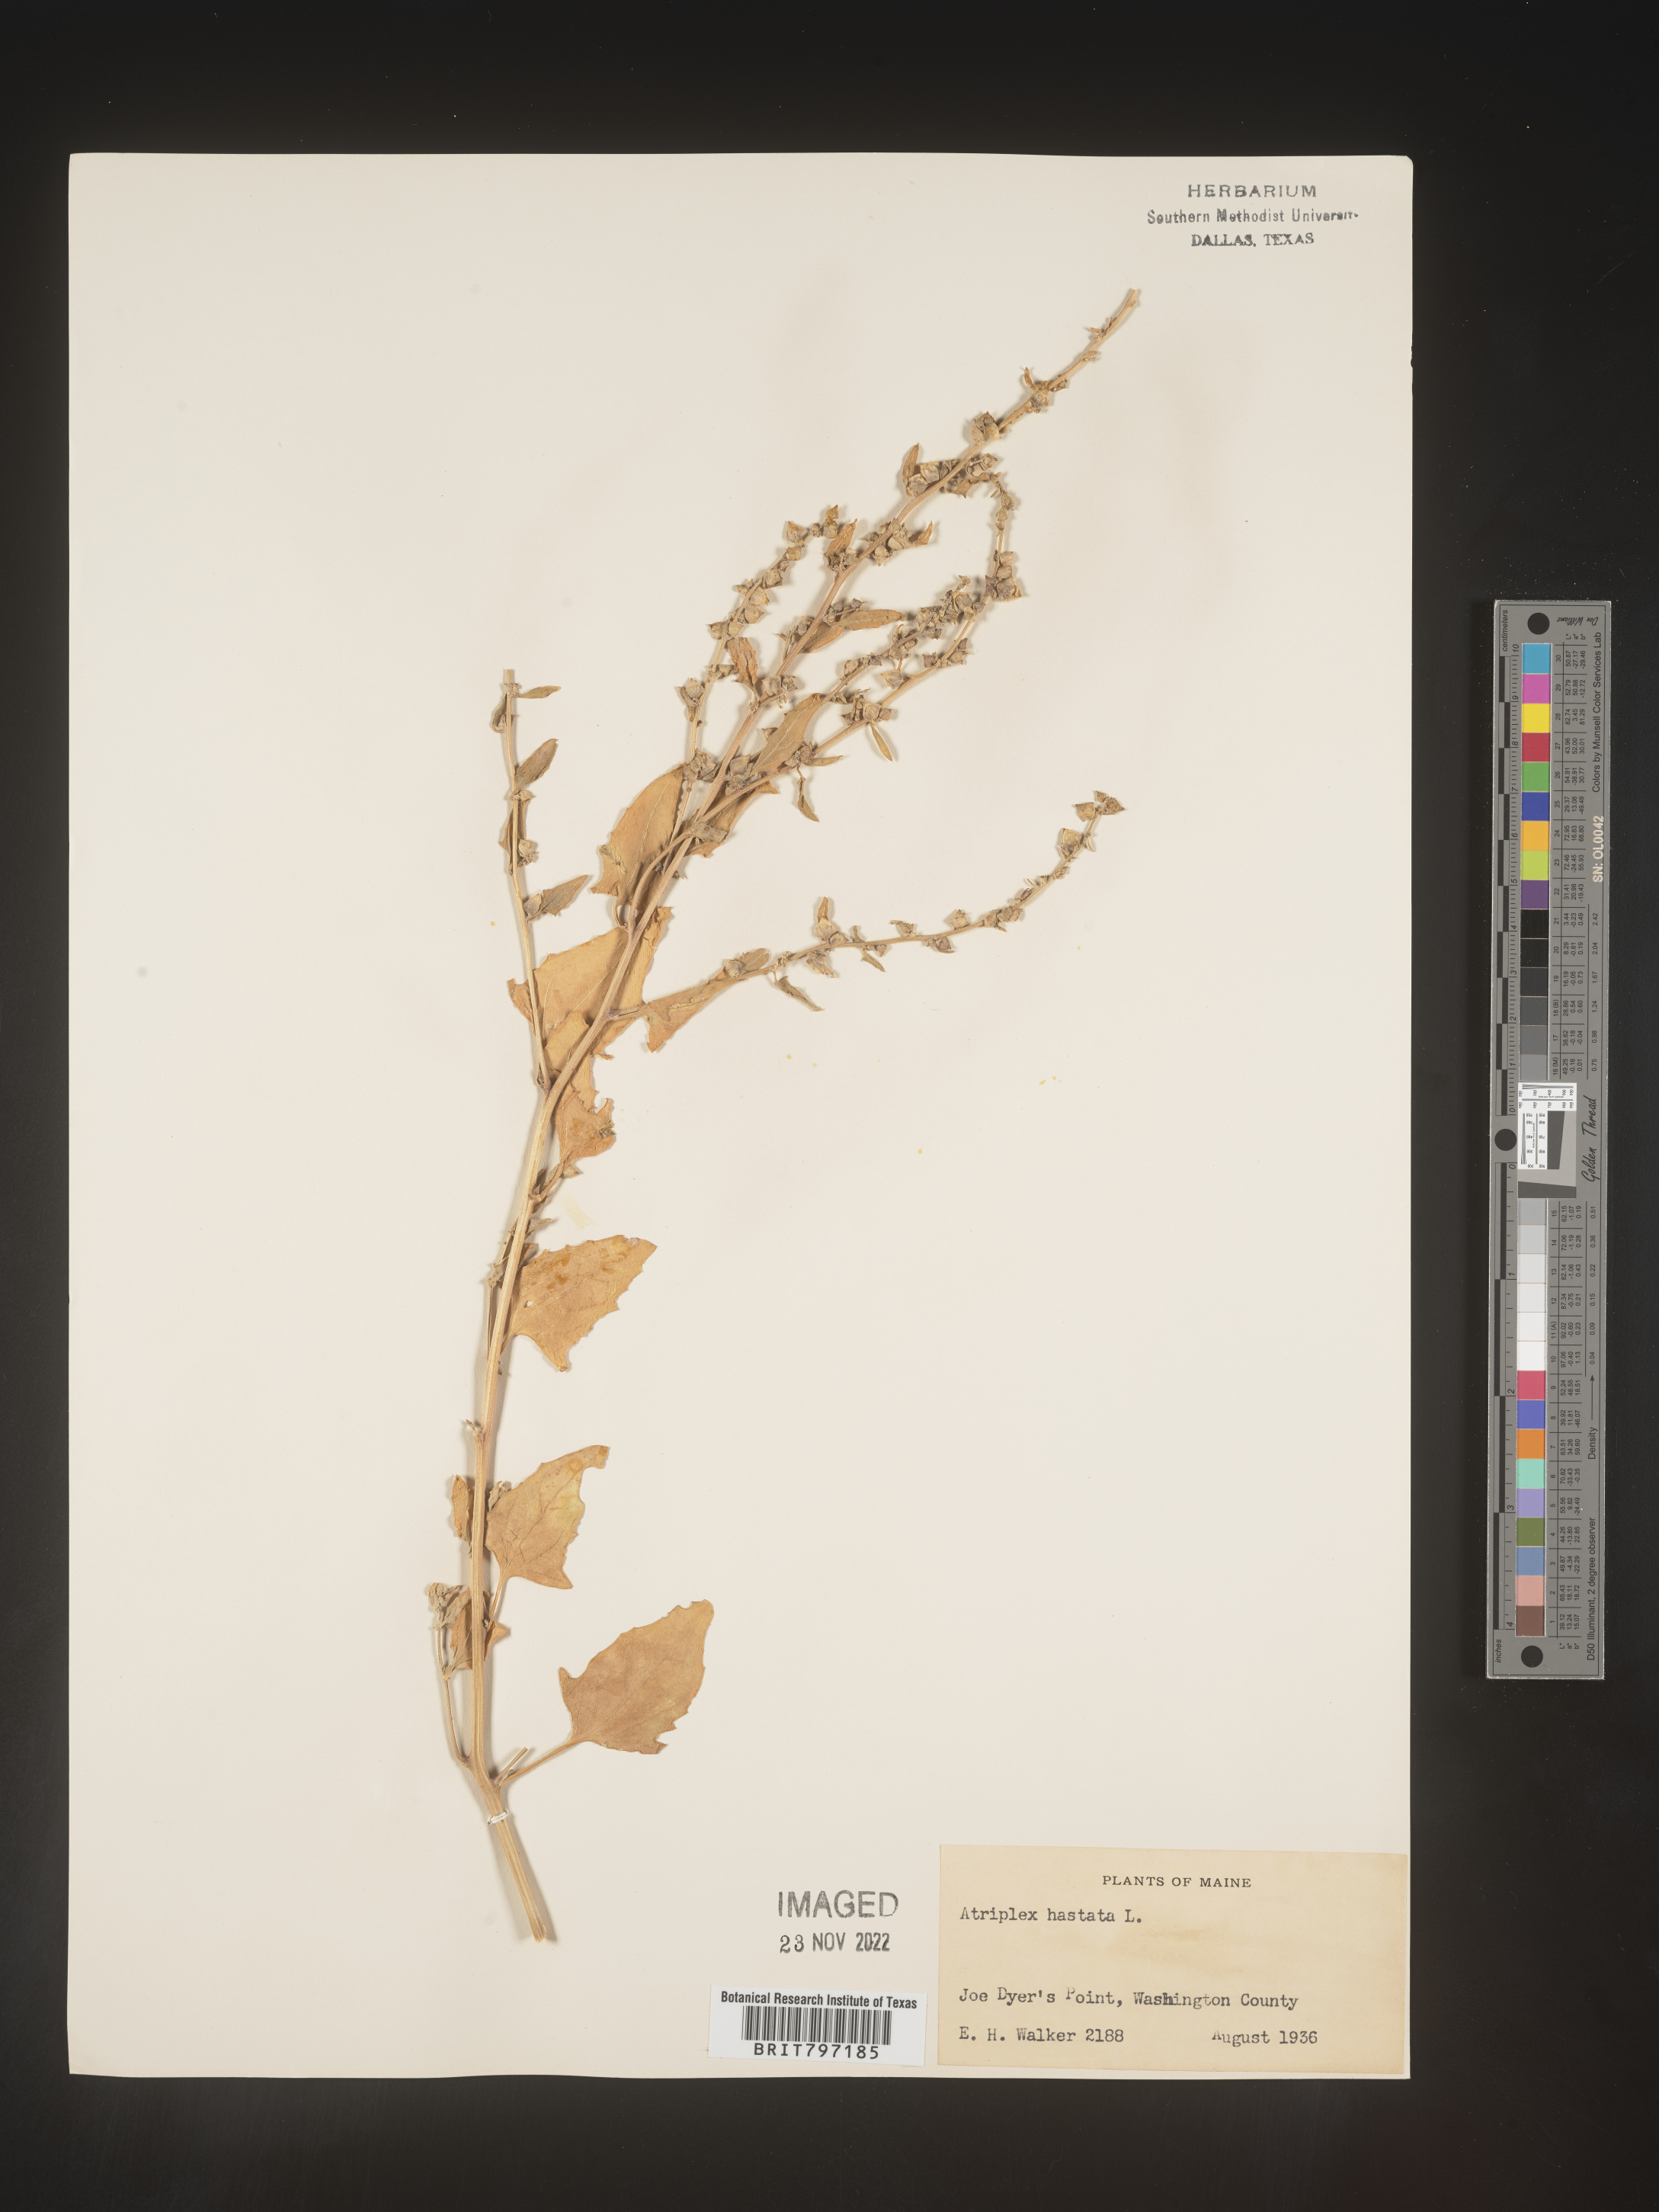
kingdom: Plantae
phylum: Tracheophyta
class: Magnoliopsida
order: Caryophyllales
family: Amaranthaceae
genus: Atriplex
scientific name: Atriplex prostrata
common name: Spear-leaved orache
